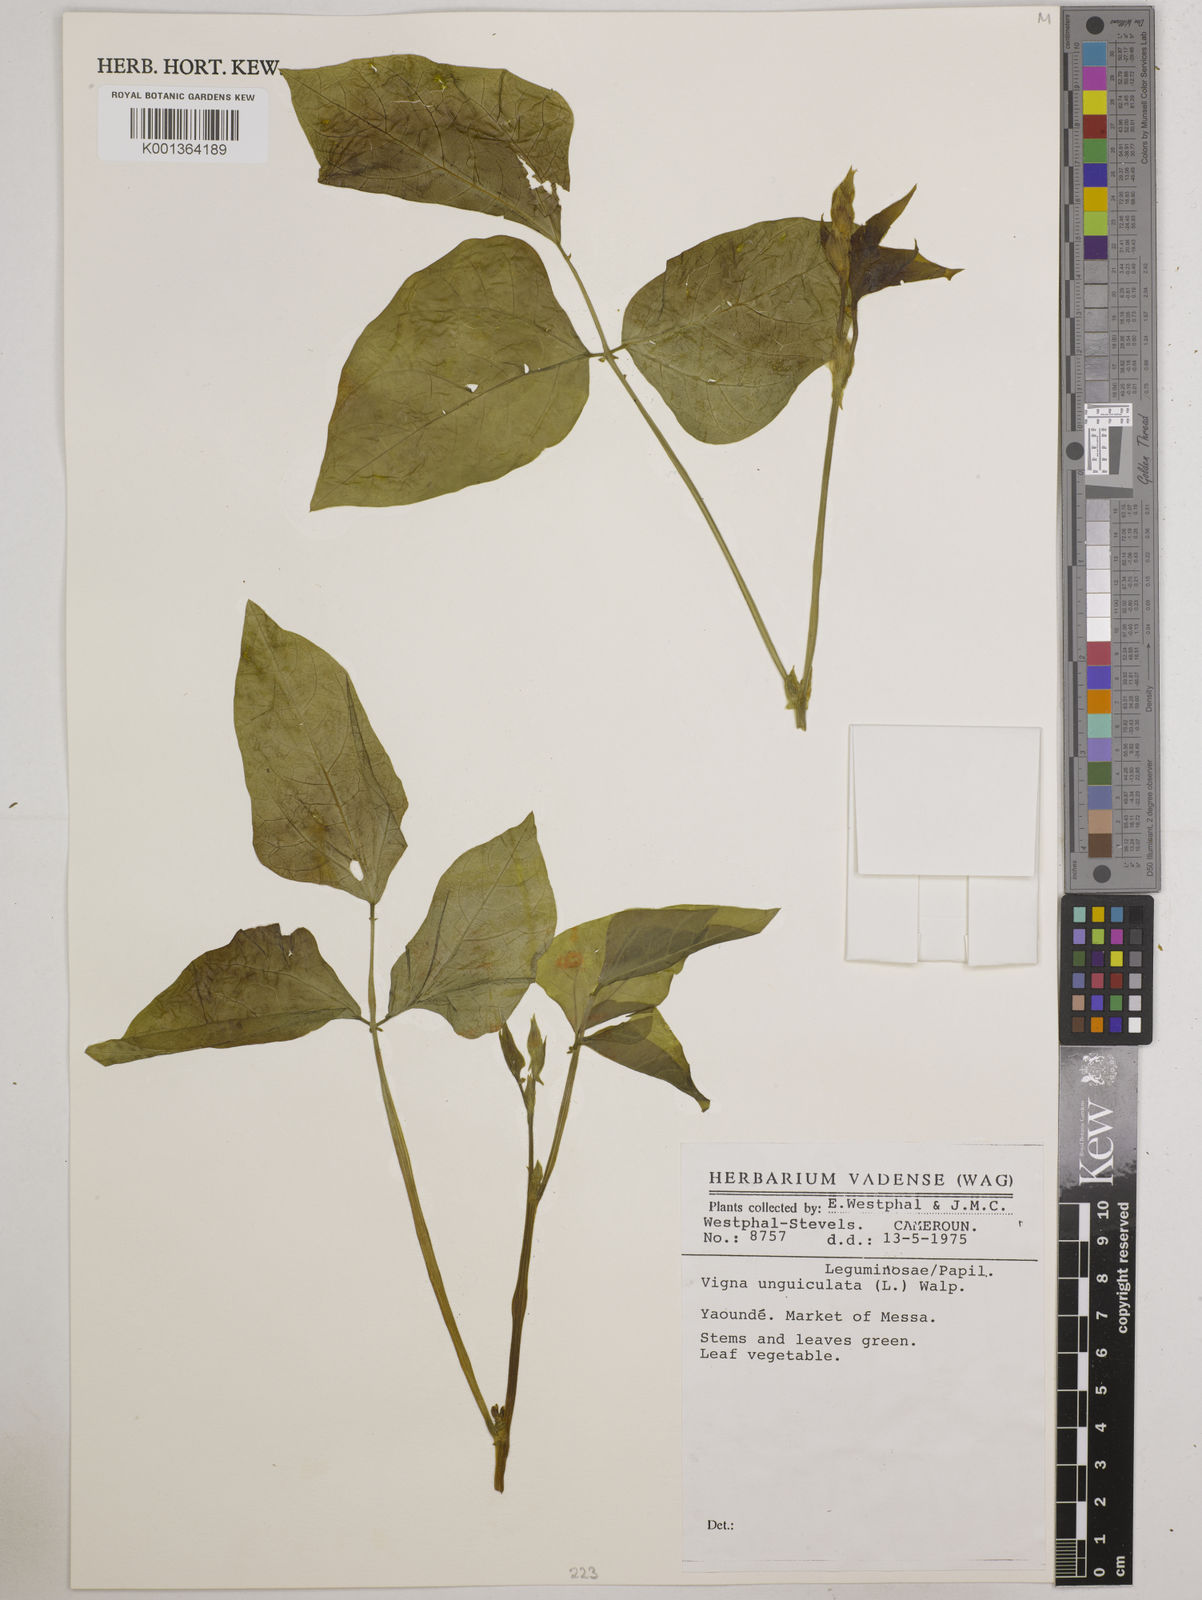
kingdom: Plantae
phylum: Tracheophyta
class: Magnoliopsida
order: Fabales
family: Fabaceae
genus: Vigna
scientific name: Vigna unguiculata
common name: Cowpea
